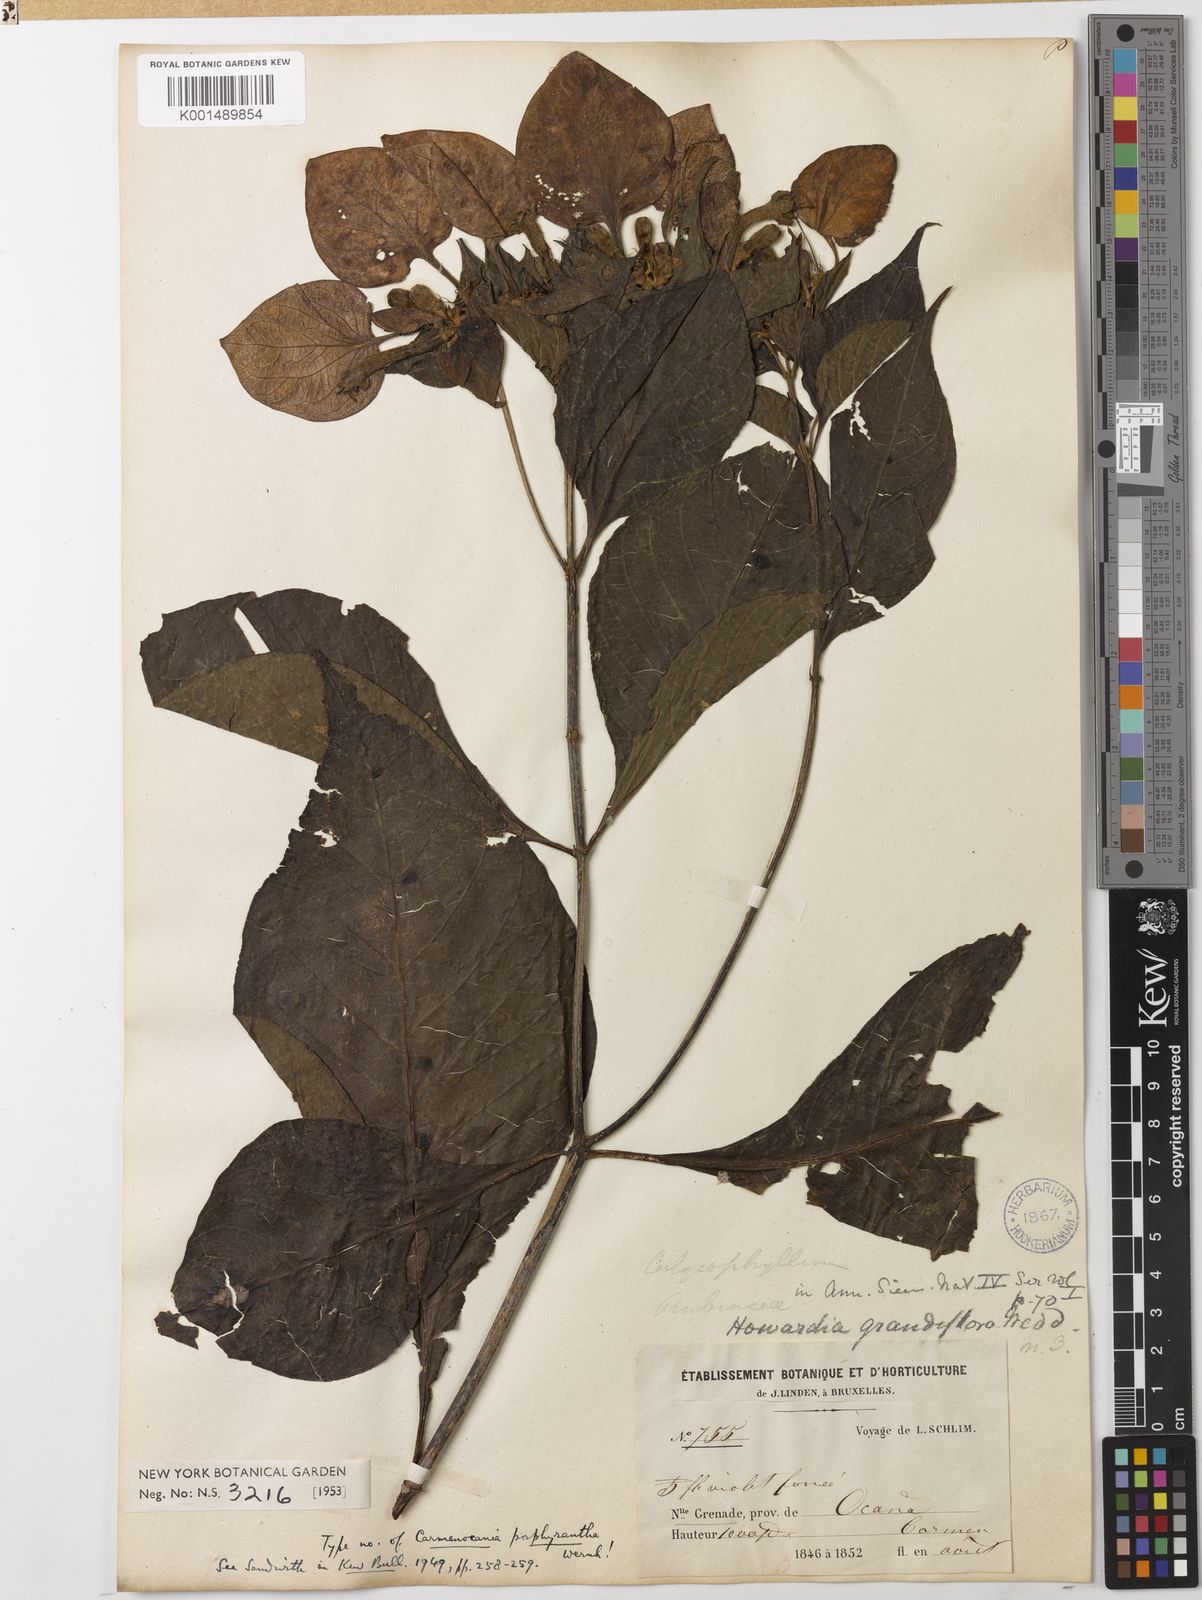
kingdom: Plantae
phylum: Tracheophyta
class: Magnoliopsida
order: Gentianales
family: Rubiaceae
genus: Pogonopus
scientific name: Pogonopus speciosus
